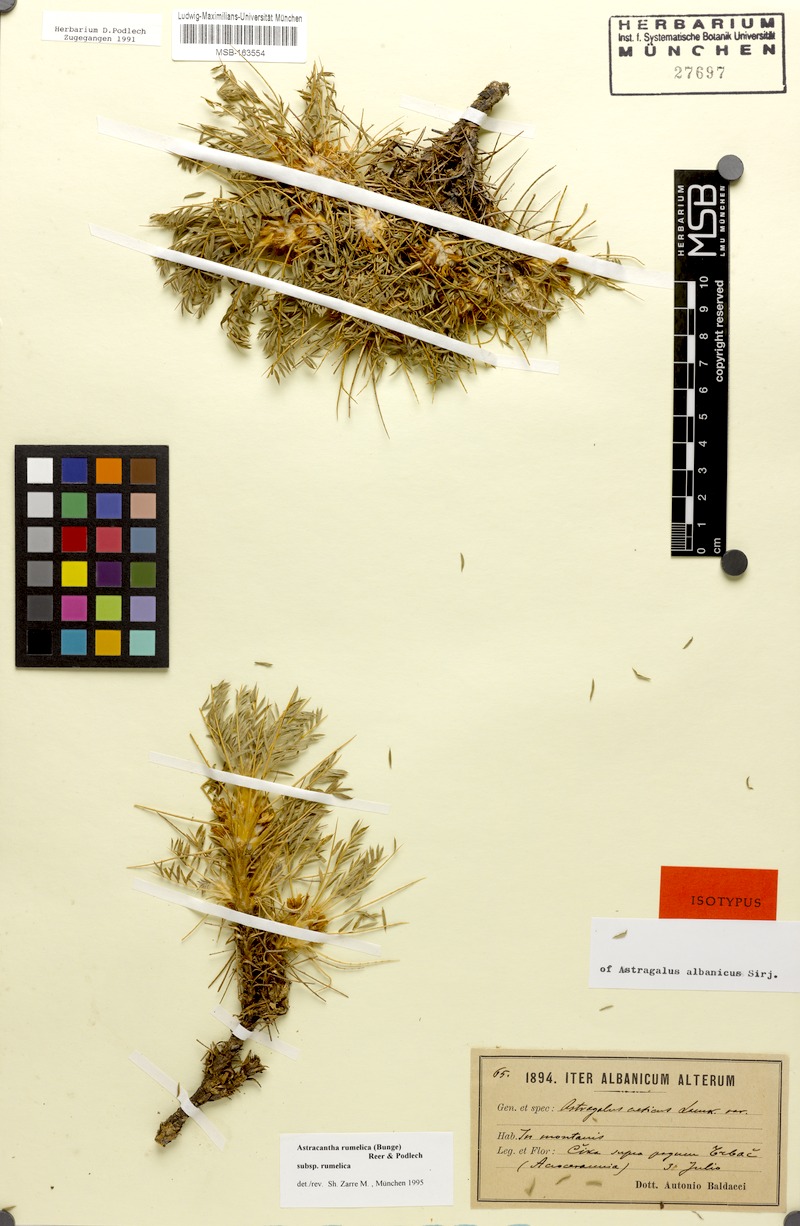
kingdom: Plantae
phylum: Tracheophyta
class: Magnoliopsida
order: Fabales
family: Fabaceae
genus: Astragalus
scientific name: Astragalus rumelicus
